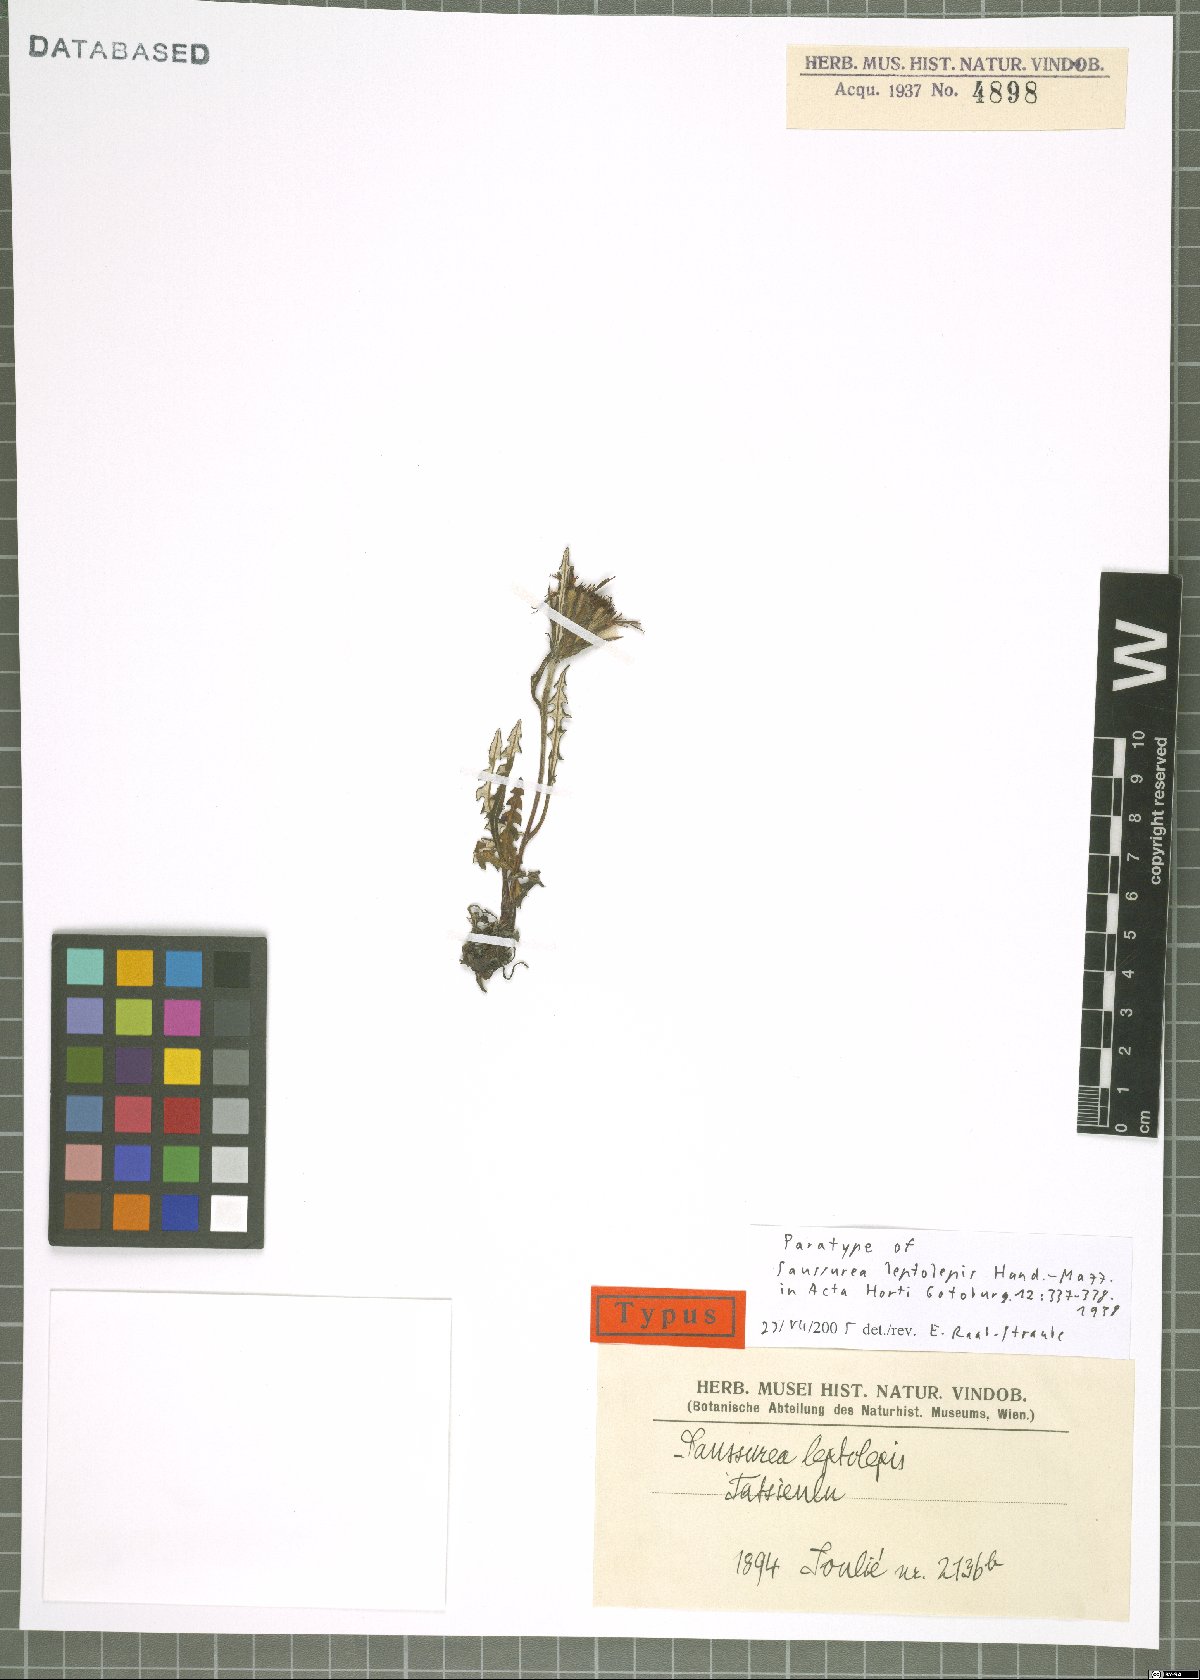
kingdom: Plantae
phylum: Tracheophyta
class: Magnoliopsida
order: Asterales
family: Asteraceae
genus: Saussurea
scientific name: Saussurea leptolepis
